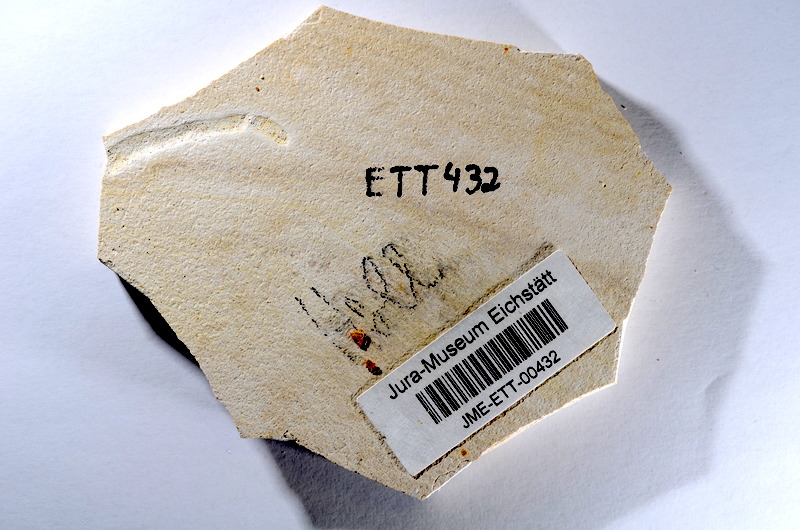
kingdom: Animalia
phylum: Chordata
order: Salmoniformes
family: Orthogonikleithridae
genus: Orthogonikleithrus
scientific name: Orthogonikleithrus hoelli
